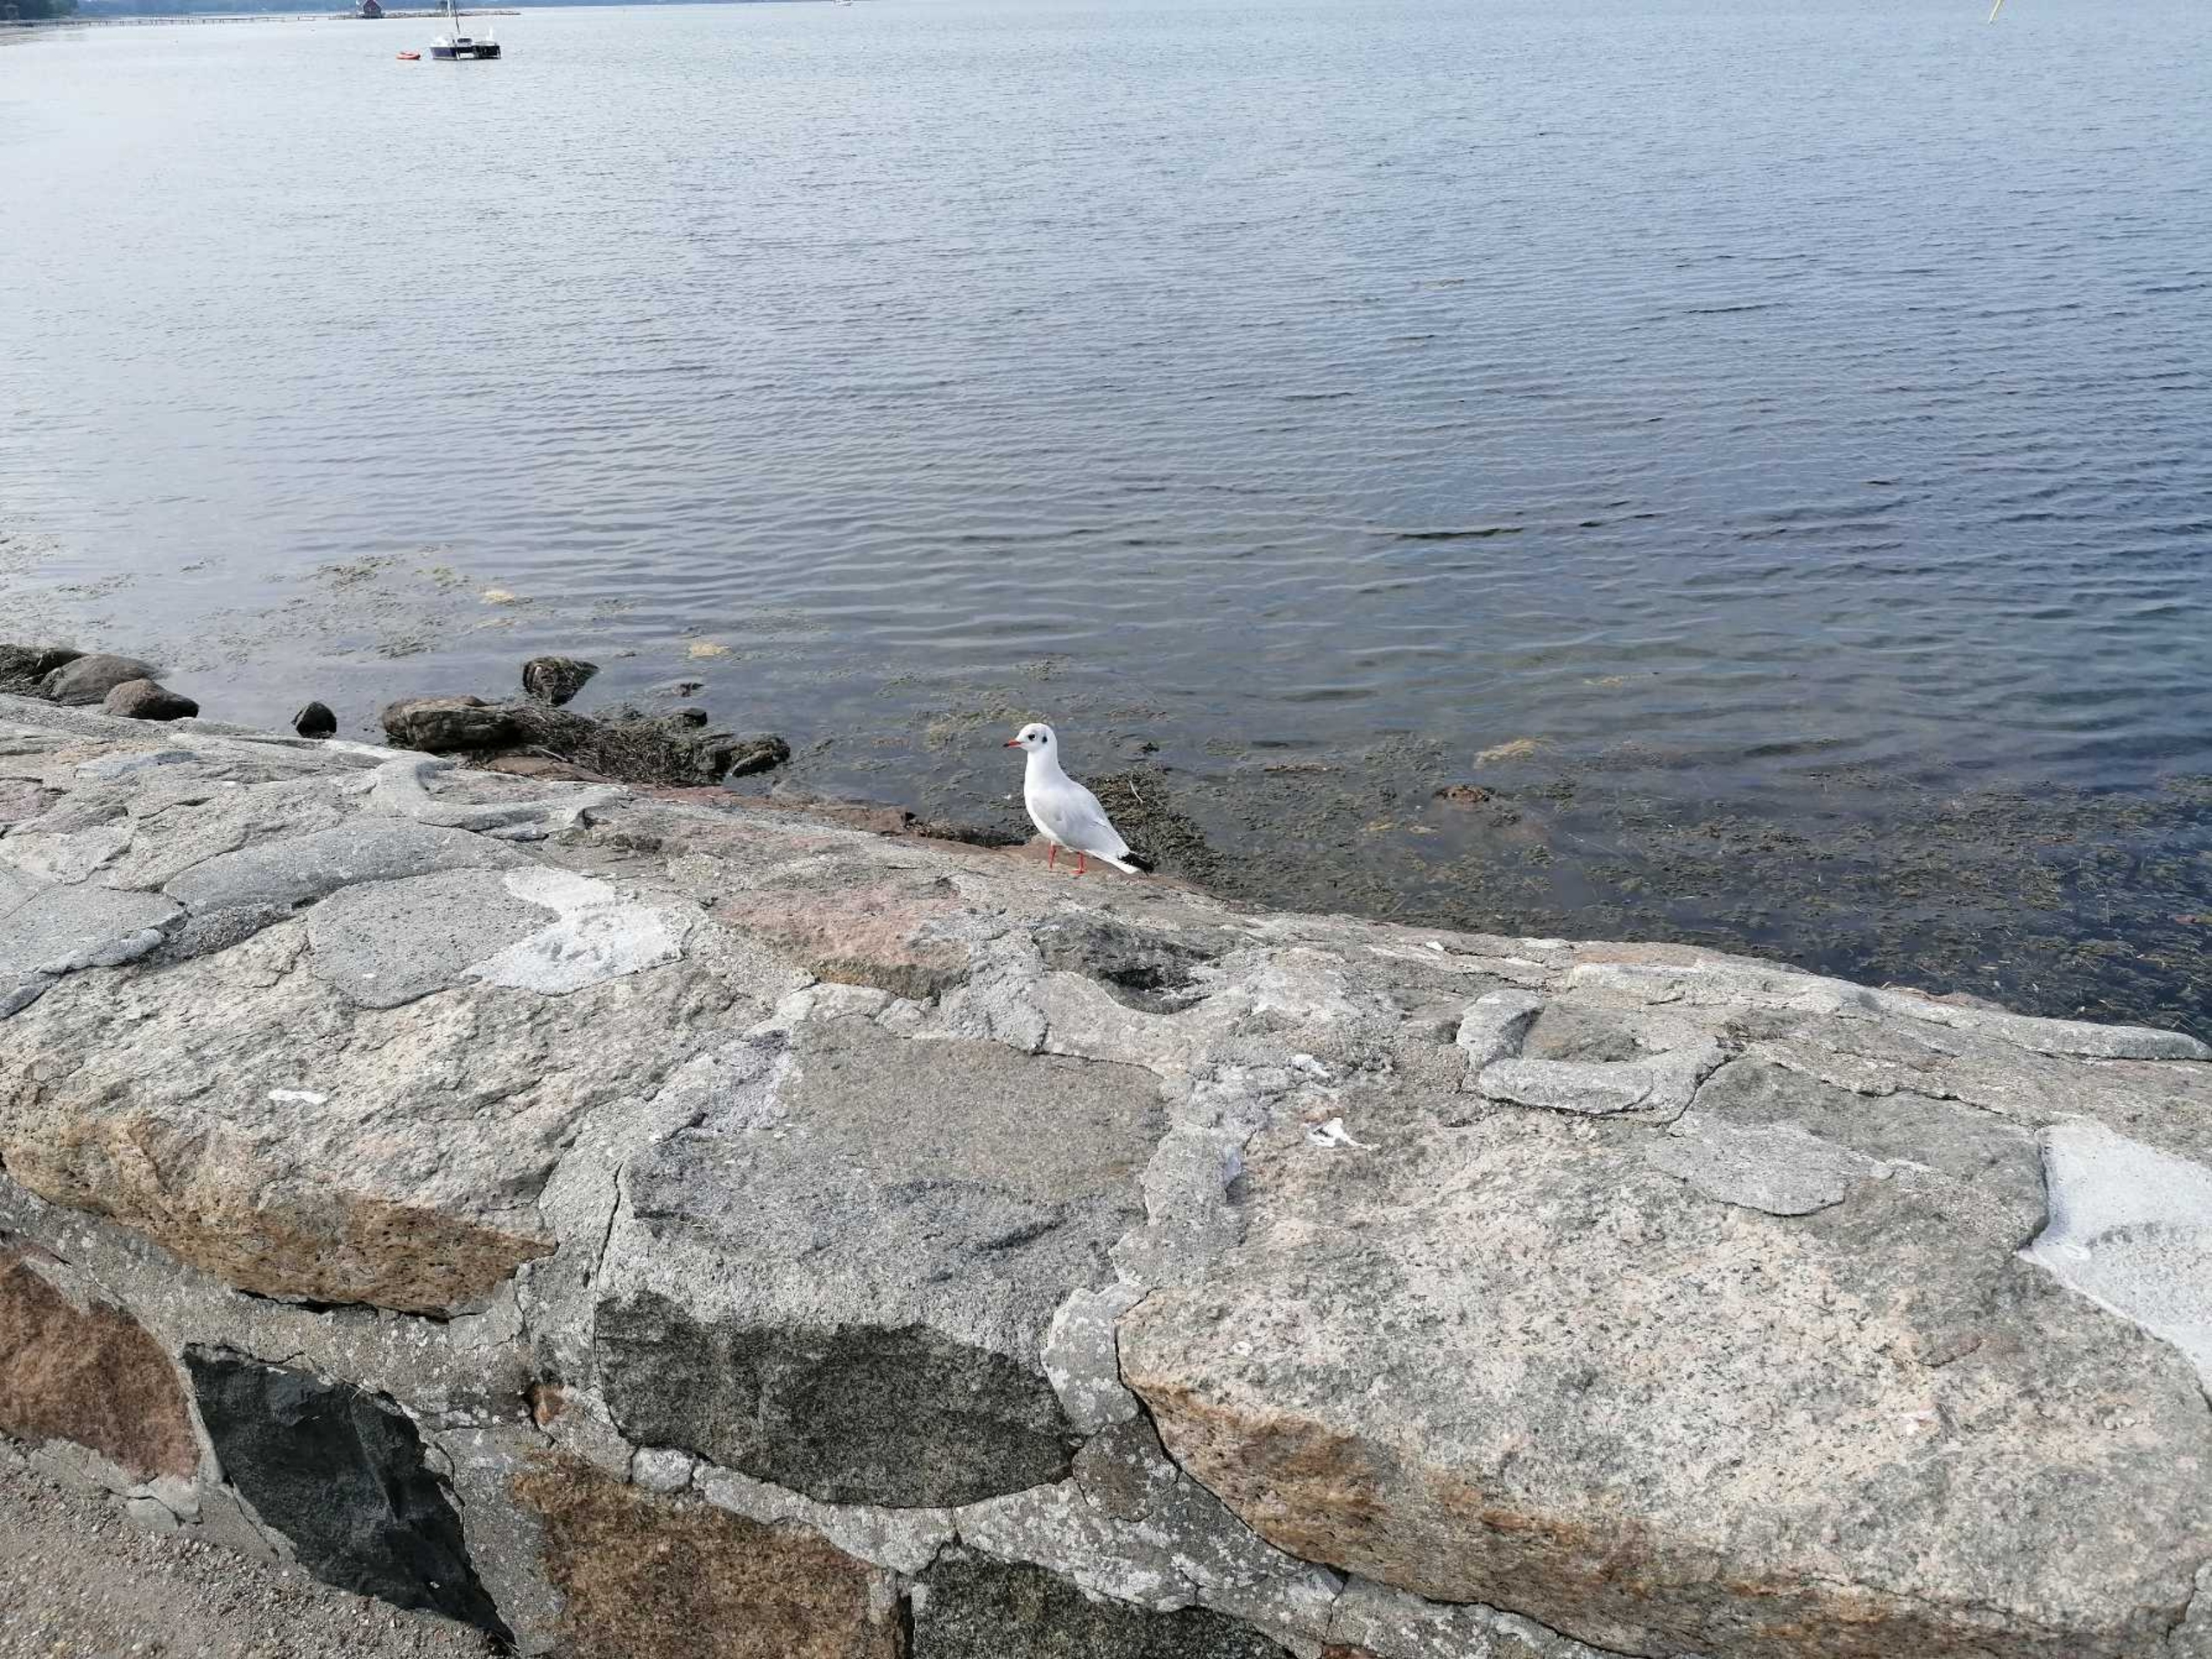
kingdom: Animalia
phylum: Chordata
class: Aves
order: Charadriiformes
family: Laridae
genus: Chroicocephalus
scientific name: Chroicocephalus ridibundus
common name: Hættemåge
